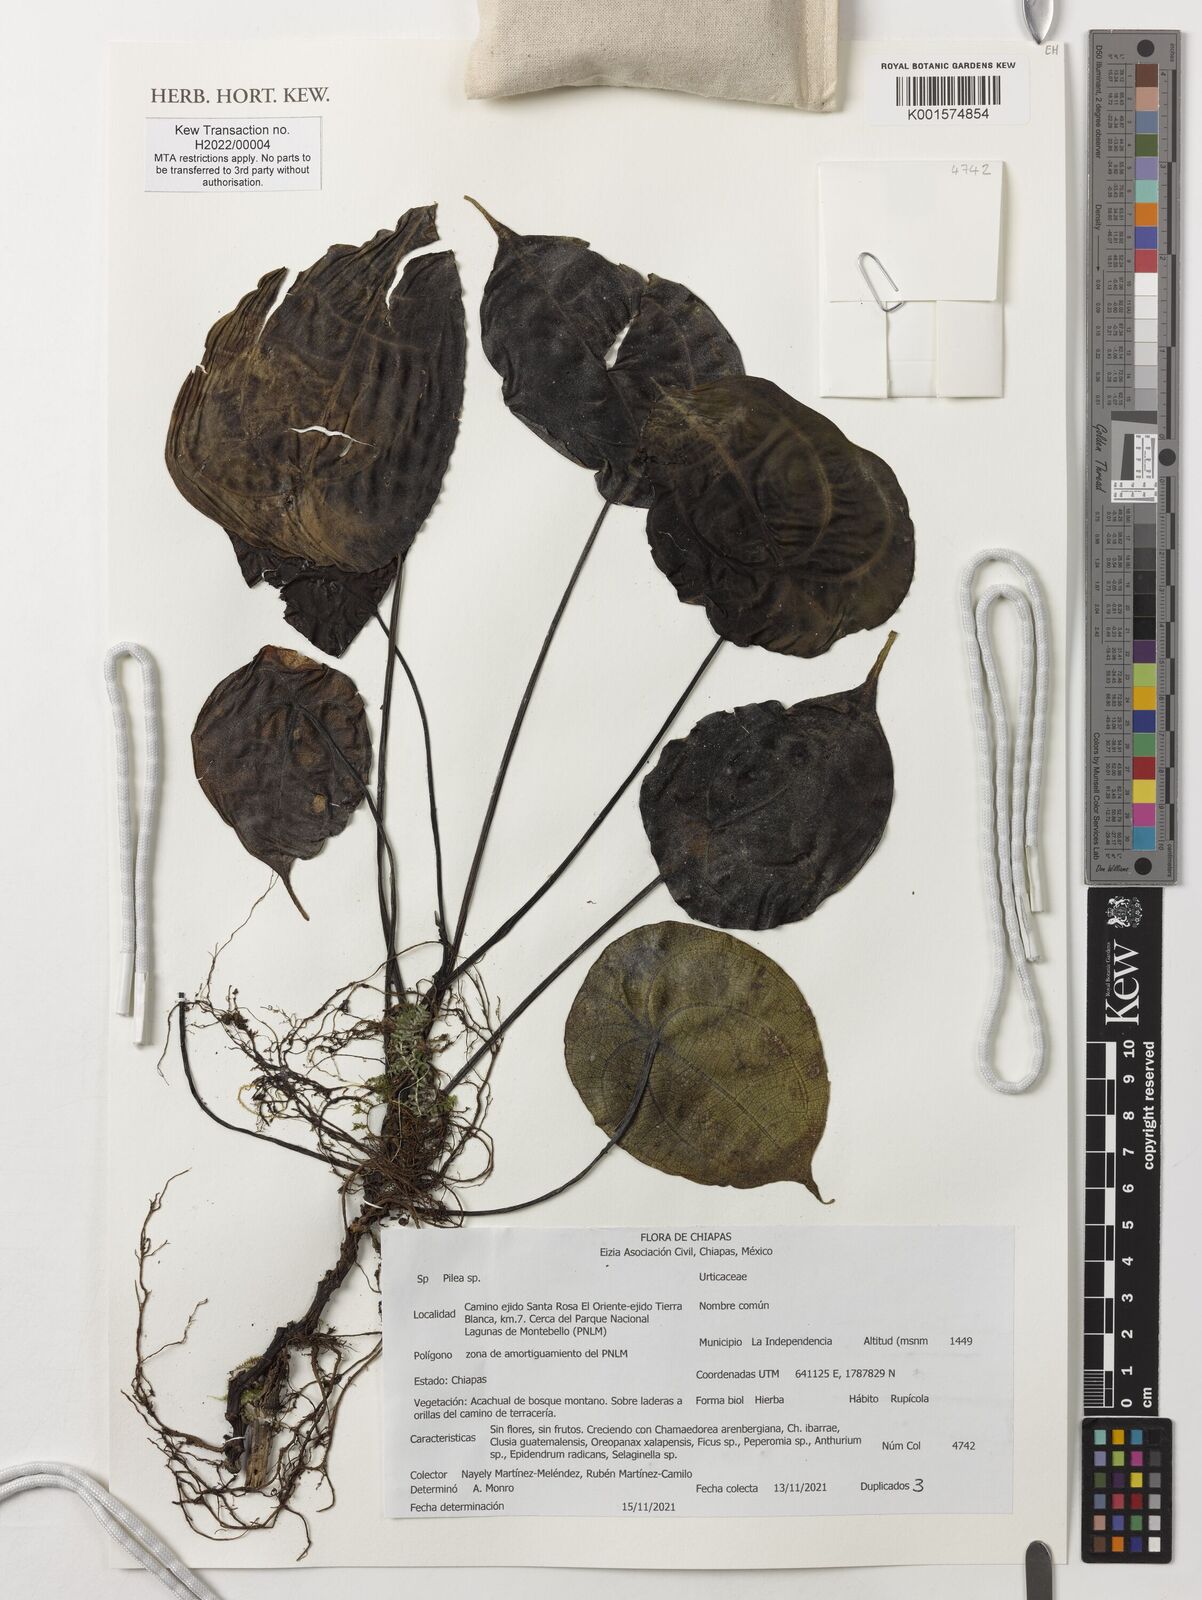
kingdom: Plantae
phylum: Tracheophyta
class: Magnoliopsida
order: Rosales
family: Urticaceae
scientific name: Urticaceae
